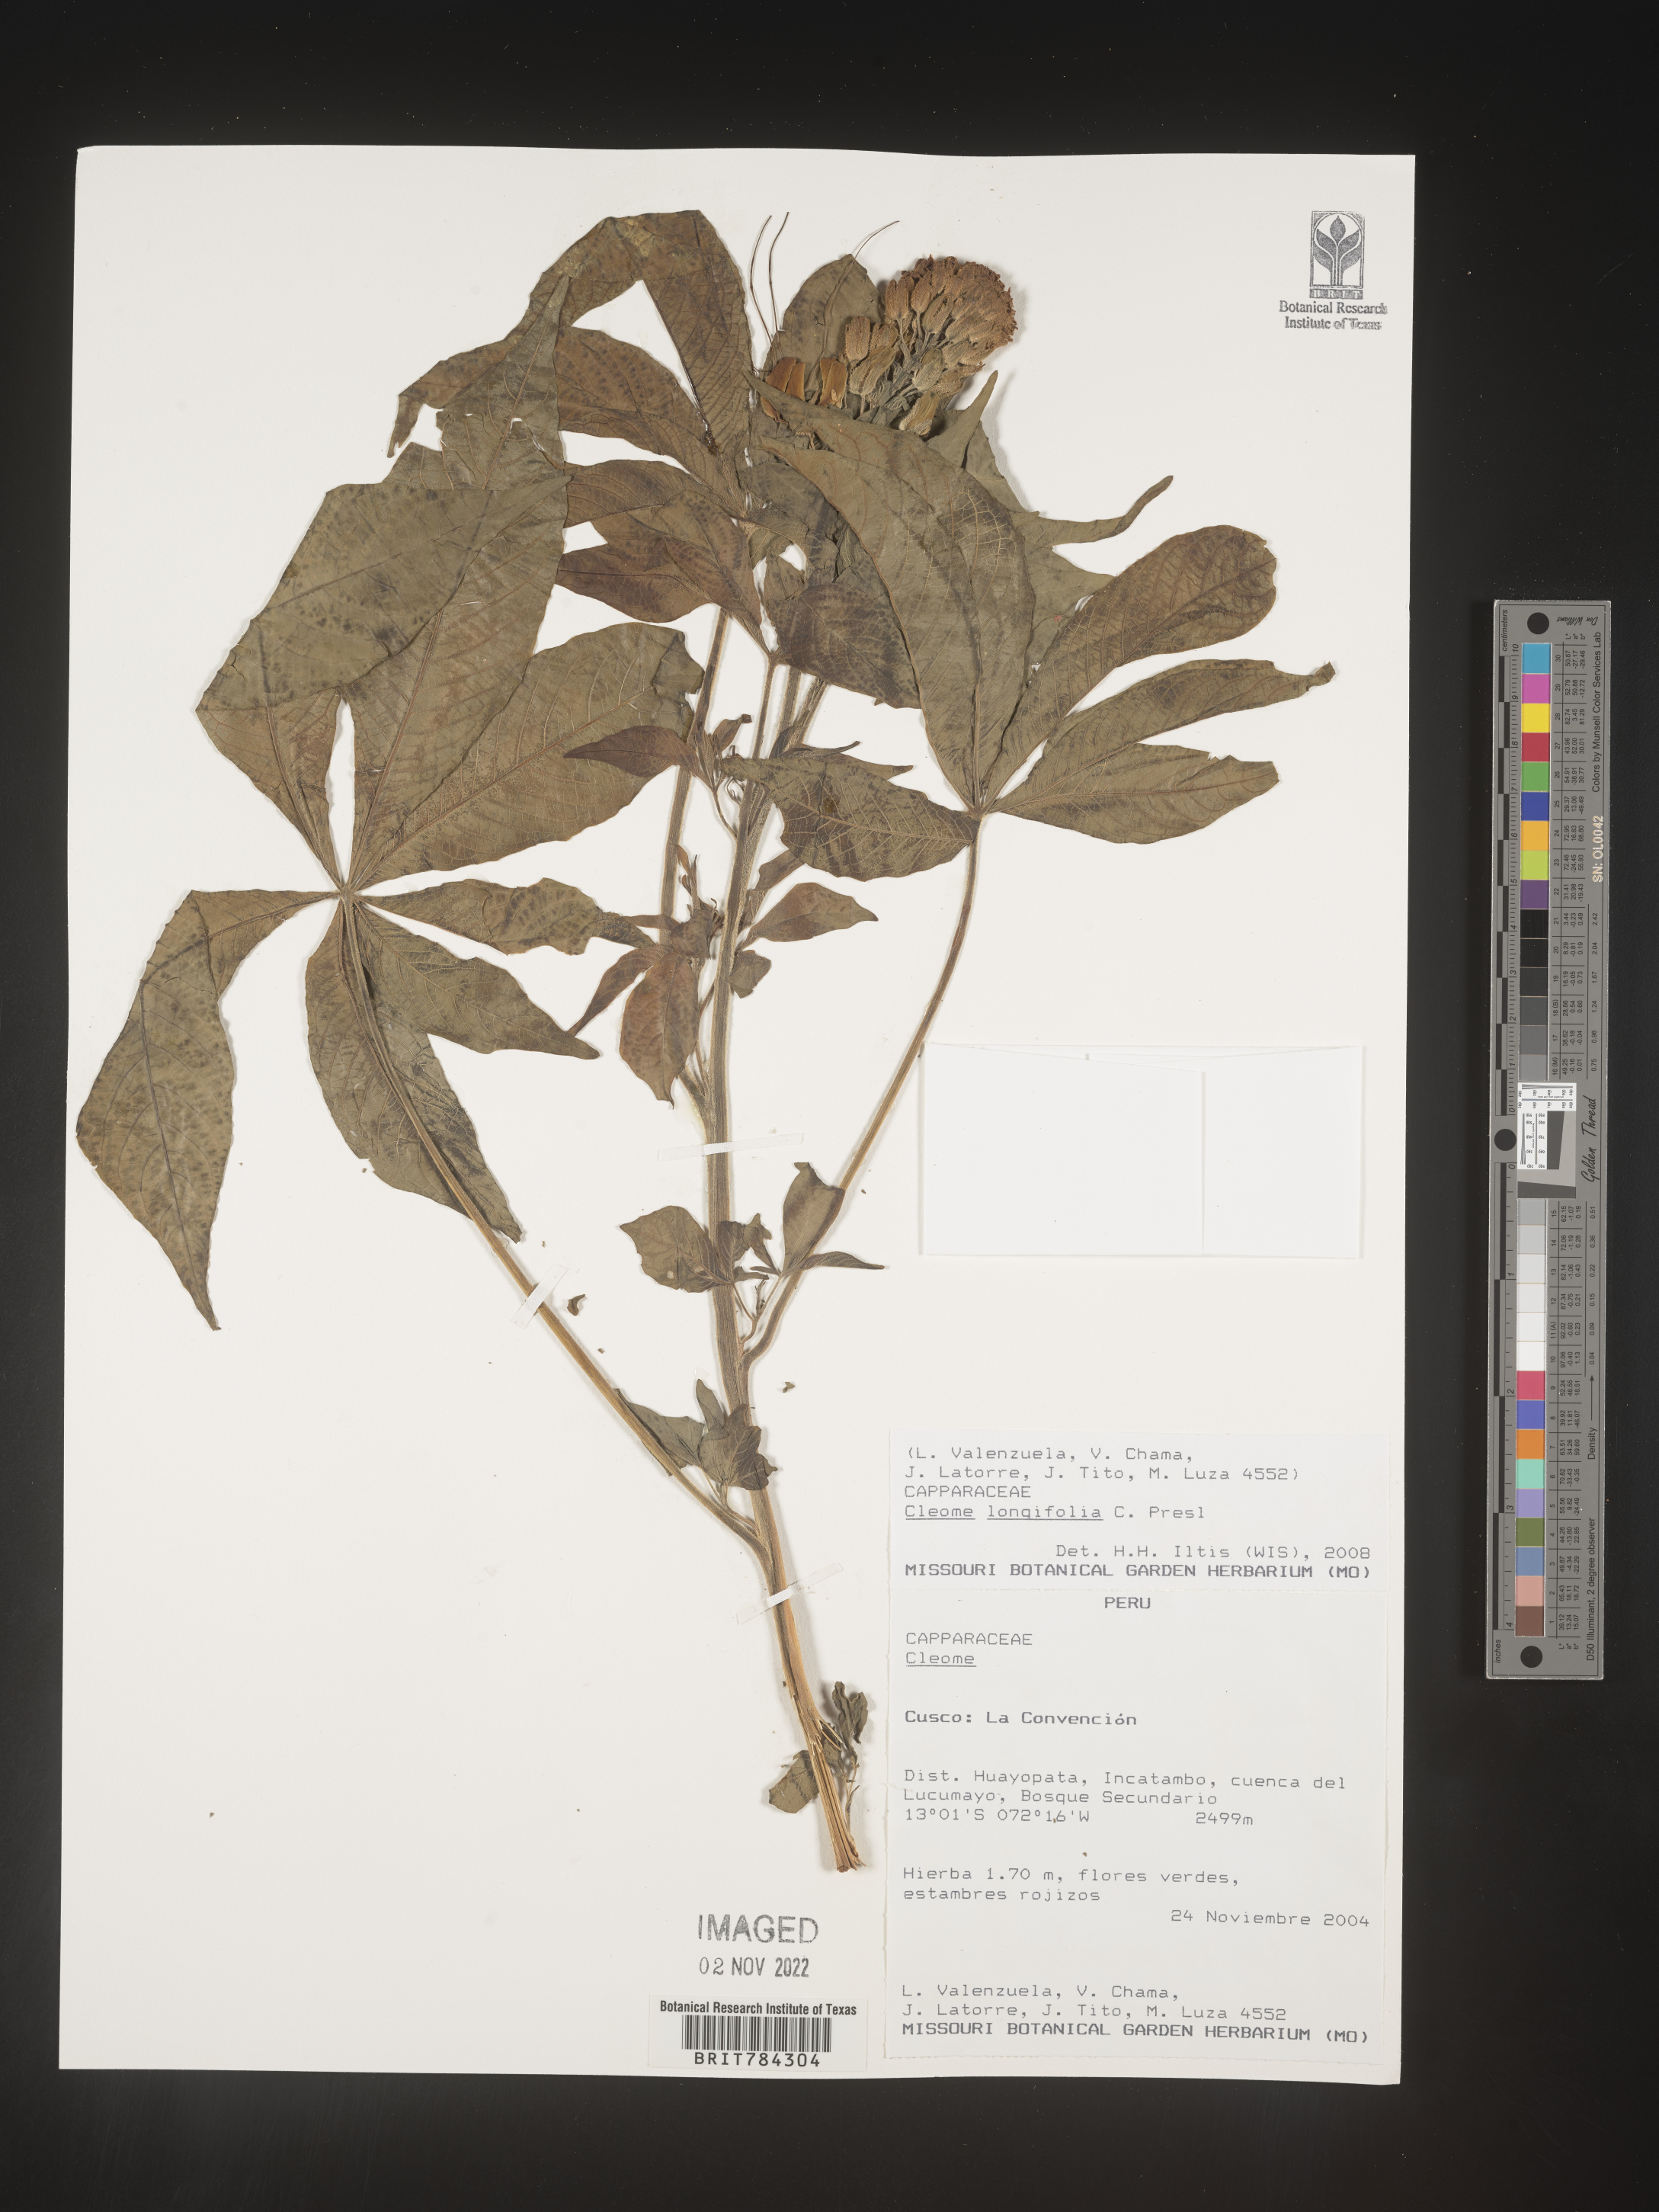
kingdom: Plantae
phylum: Tracheophyta
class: Magnoliopsida
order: Brassicales
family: Cleomaceae
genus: Cleome
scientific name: Cleome
